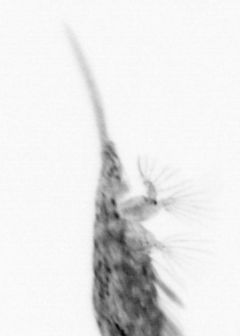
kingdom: Animalia
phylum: Arthropoda
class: Copepoda
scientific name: Copepoda
